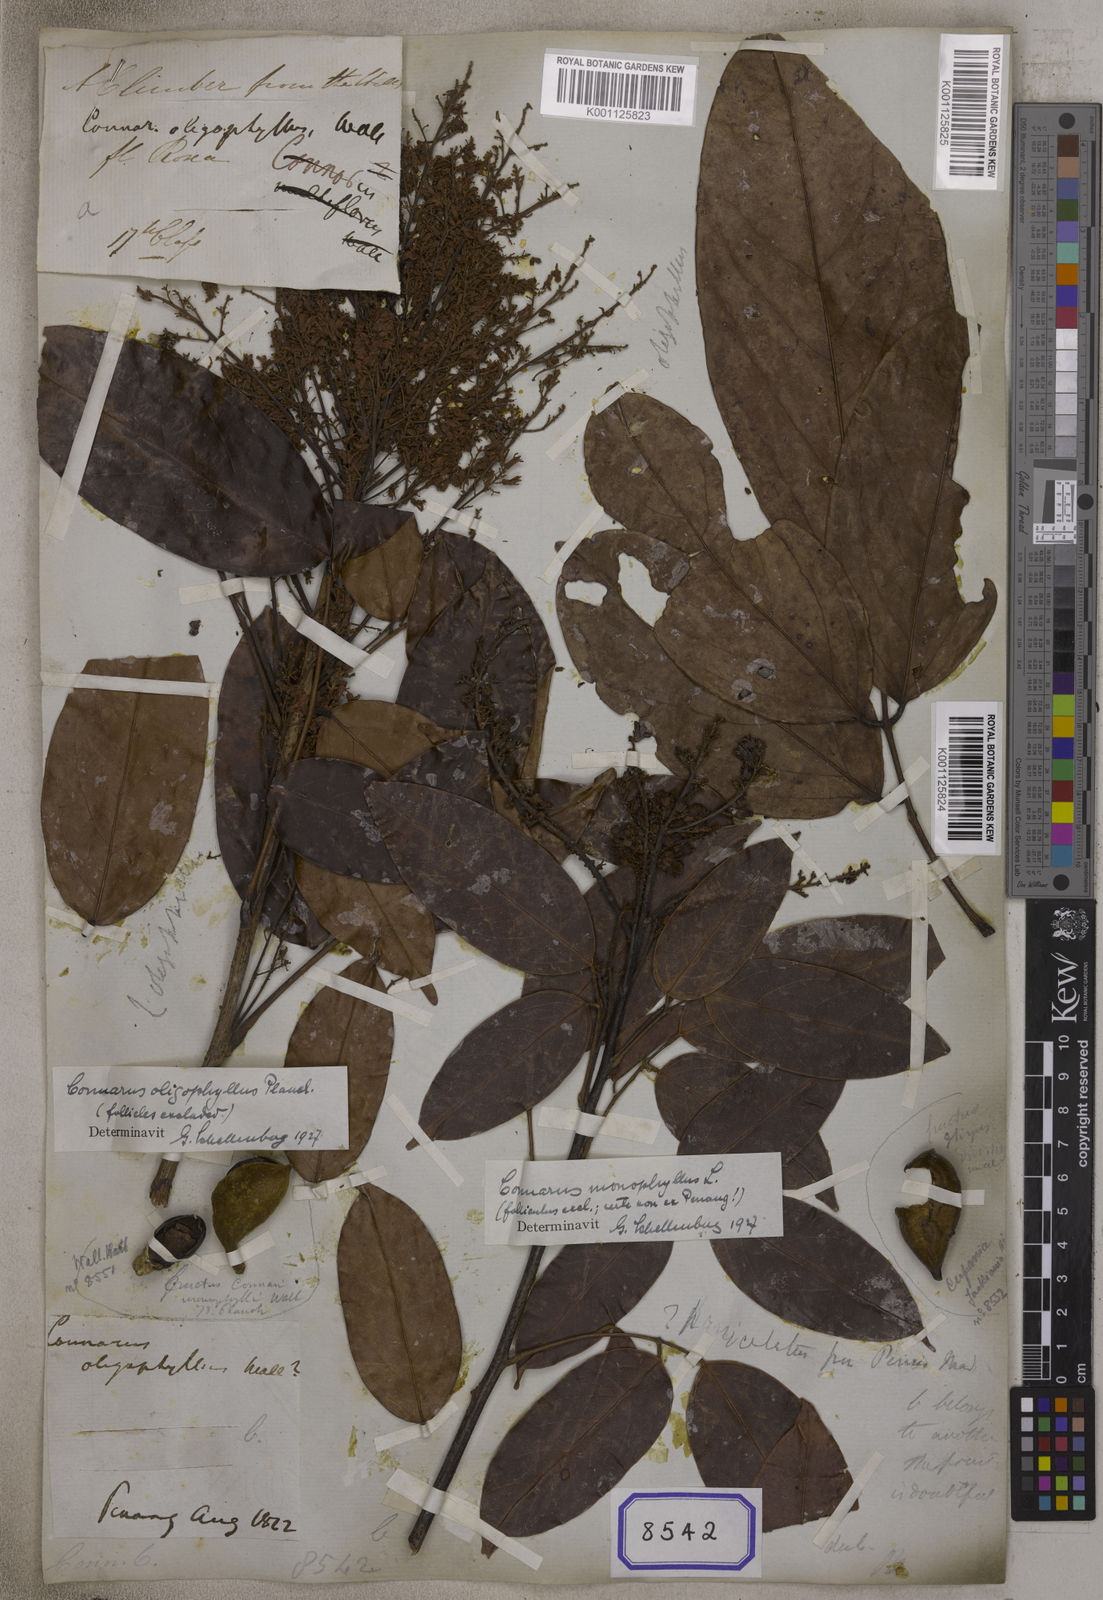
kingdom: Plantae
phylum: Tracheophyta
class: Magnoliopsida
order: Oxalidales
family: Connaraceae
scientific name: Connaraceae
